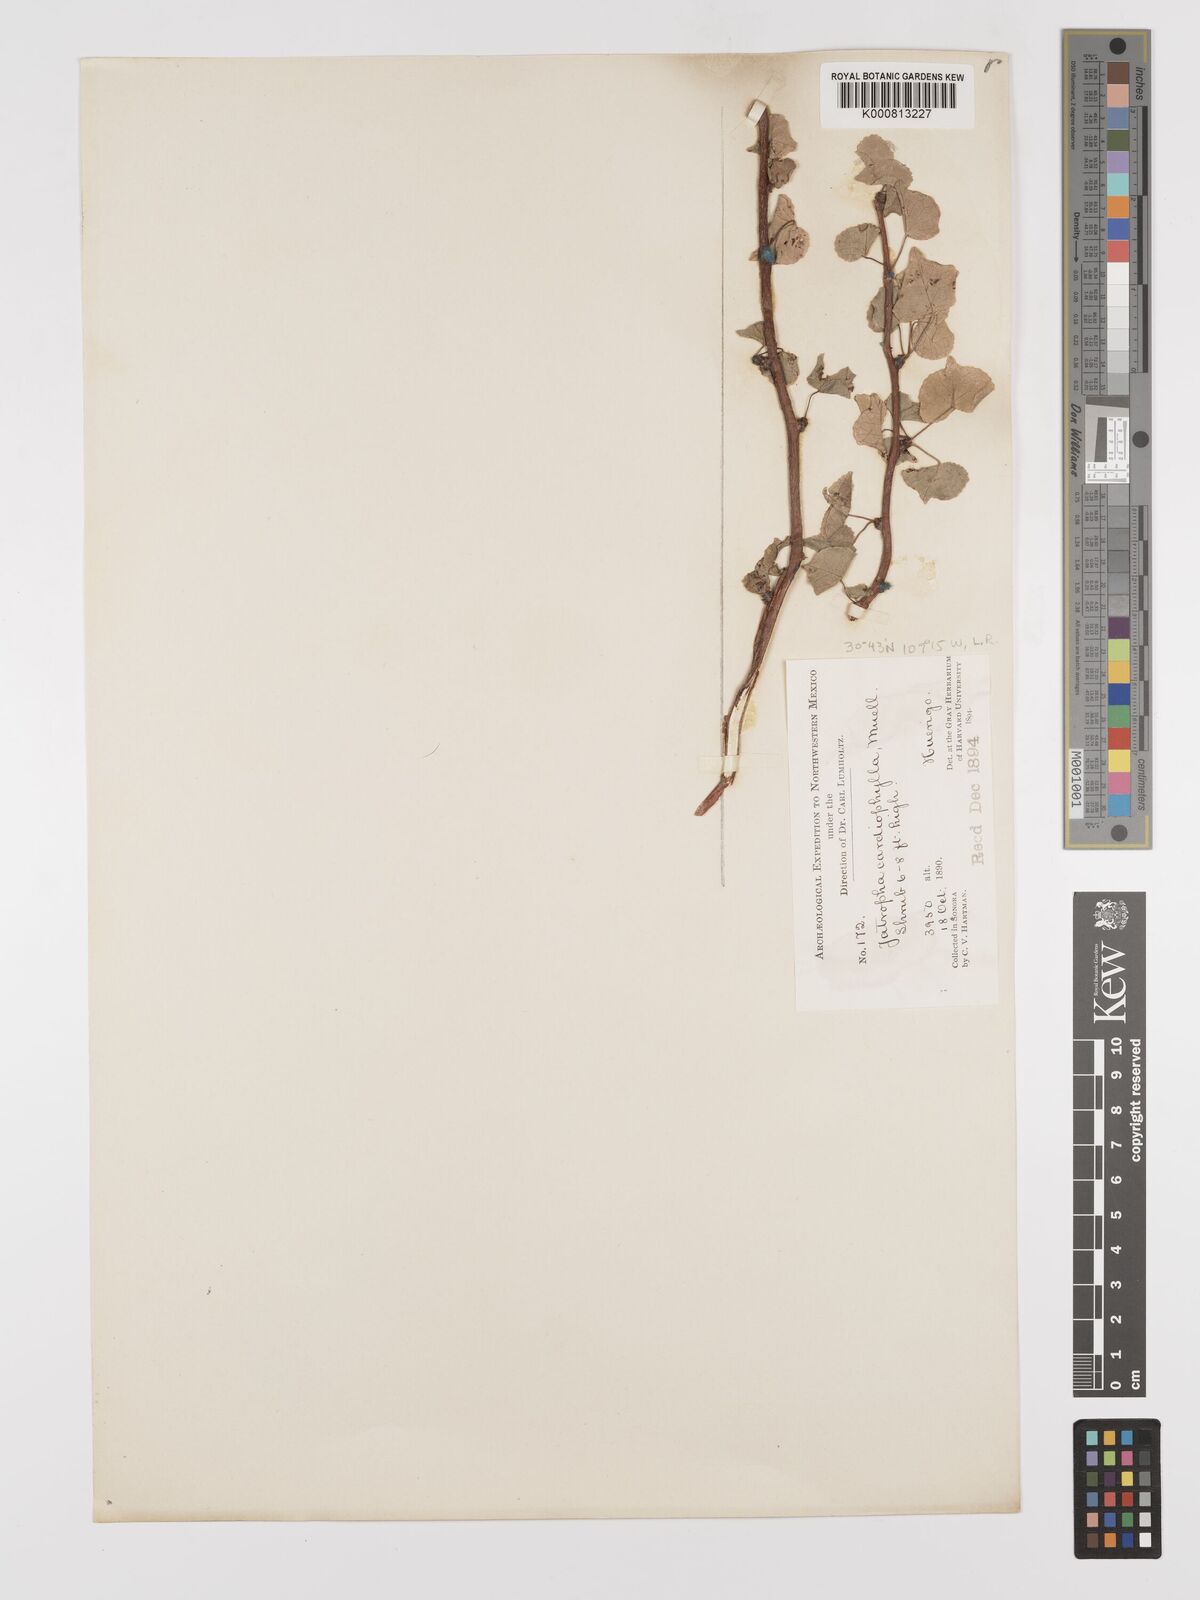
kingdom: Plantae
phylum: Tracheophyta
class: Magnoliopsida
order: Malpighiales
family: Euphorbiaceae
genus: Jatropha
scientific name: Jatropha
